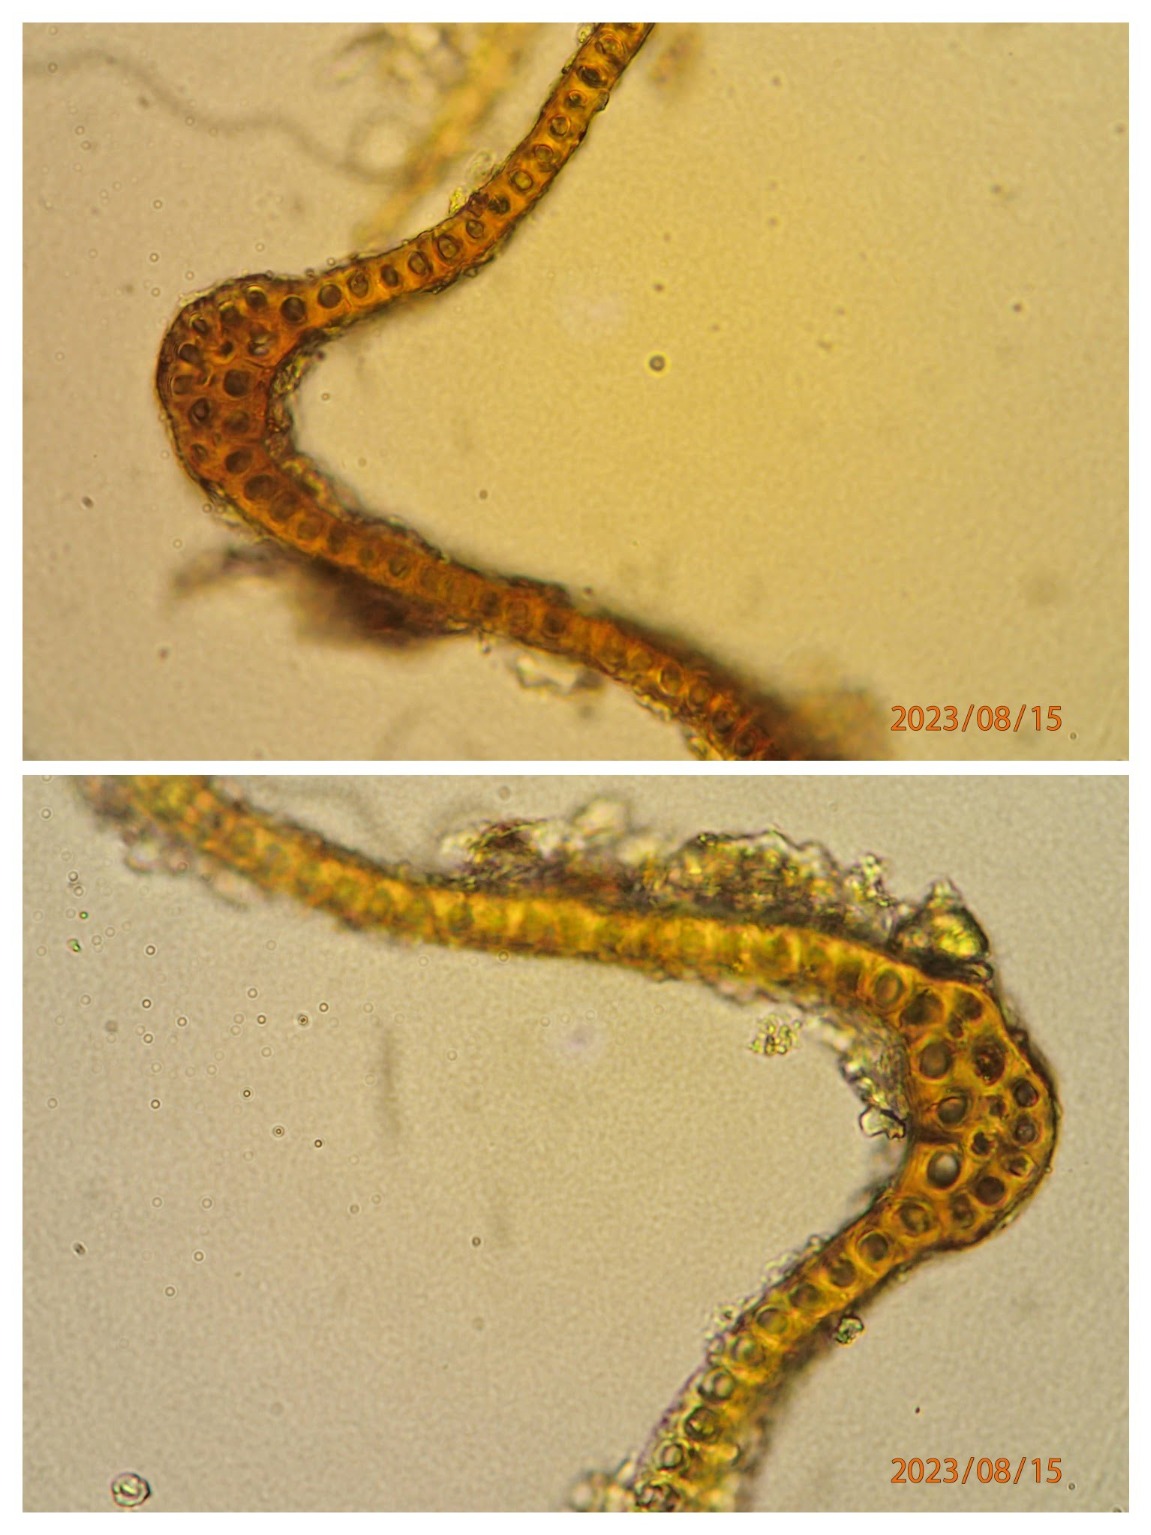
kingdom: Plantae
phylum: Bryophyta
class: Bryopsida
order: Grimmiales
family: Grimmiaceae
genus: Bucklandiella
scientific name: Bucklandiella affinis
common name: Spinkel børstemos
